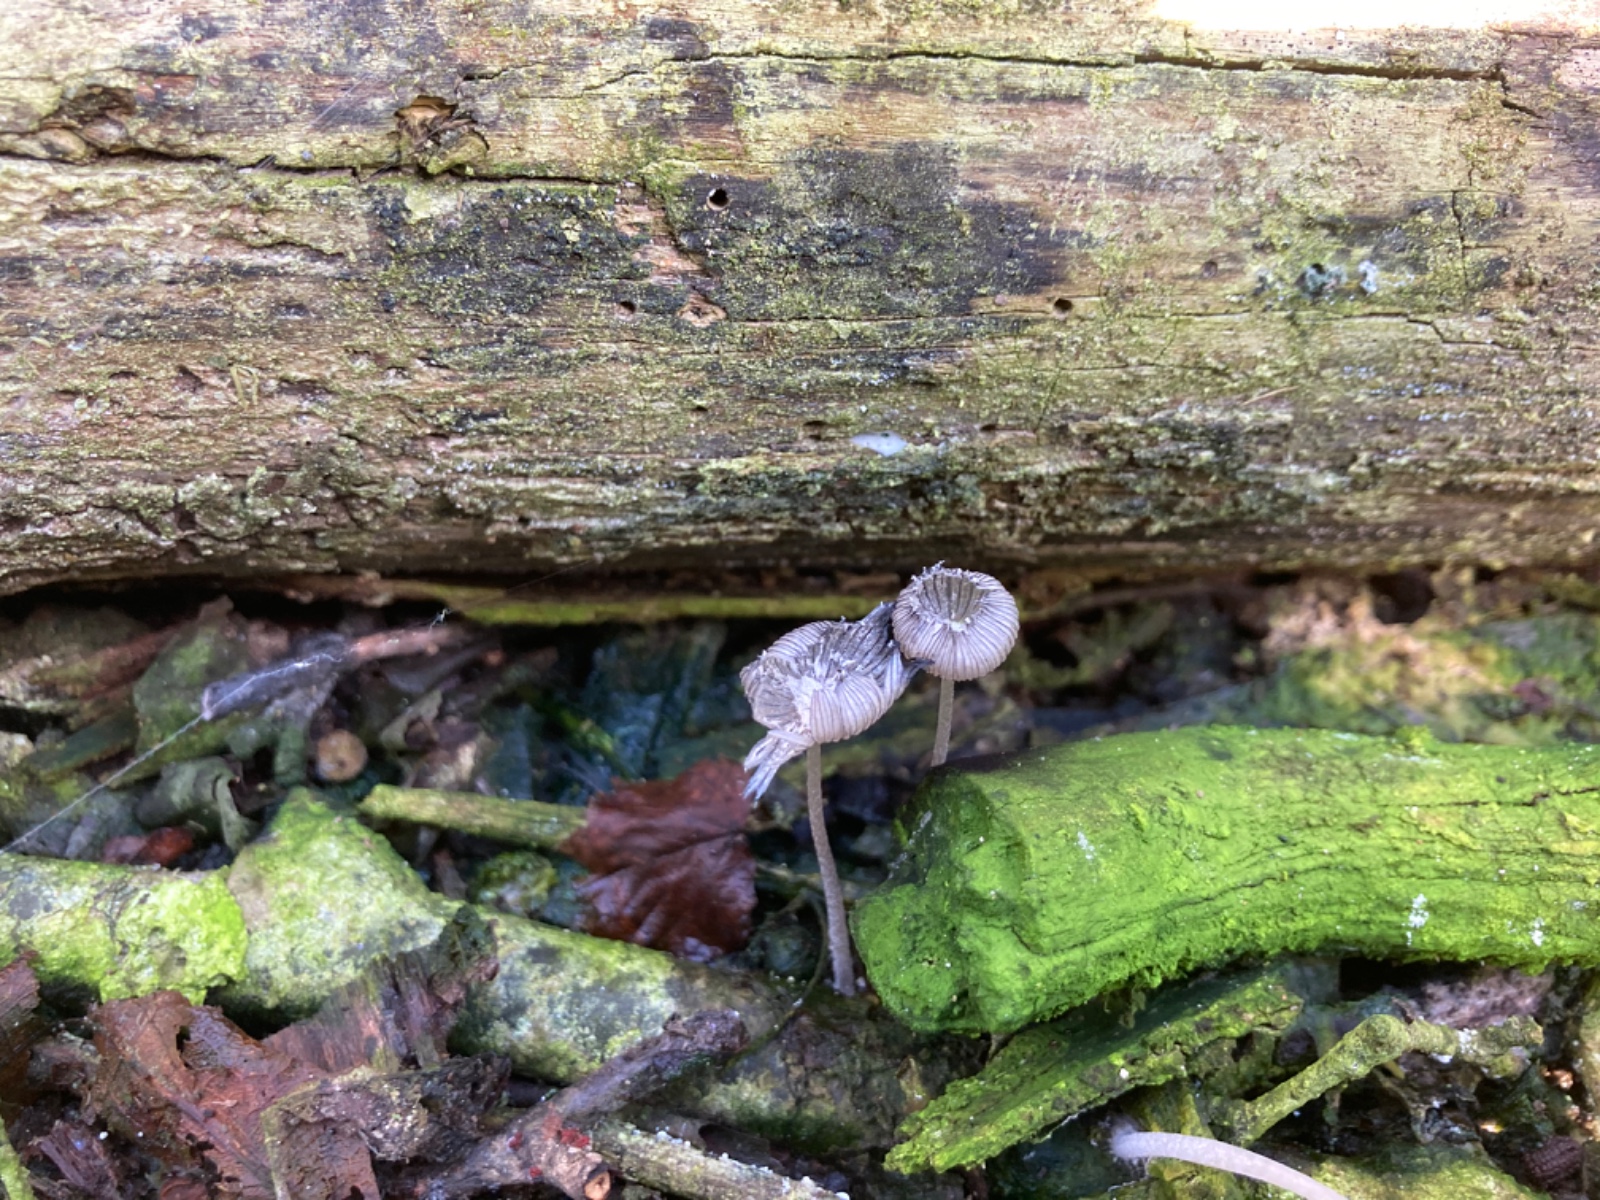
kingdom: Fungi
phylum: Basidiomycota
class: Agaricomycetes
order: Agaricales
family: Psathyrellaceae
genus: Coprinopsis
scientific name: Coprinopsis echinospora
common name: fuglemøg-blækhat
